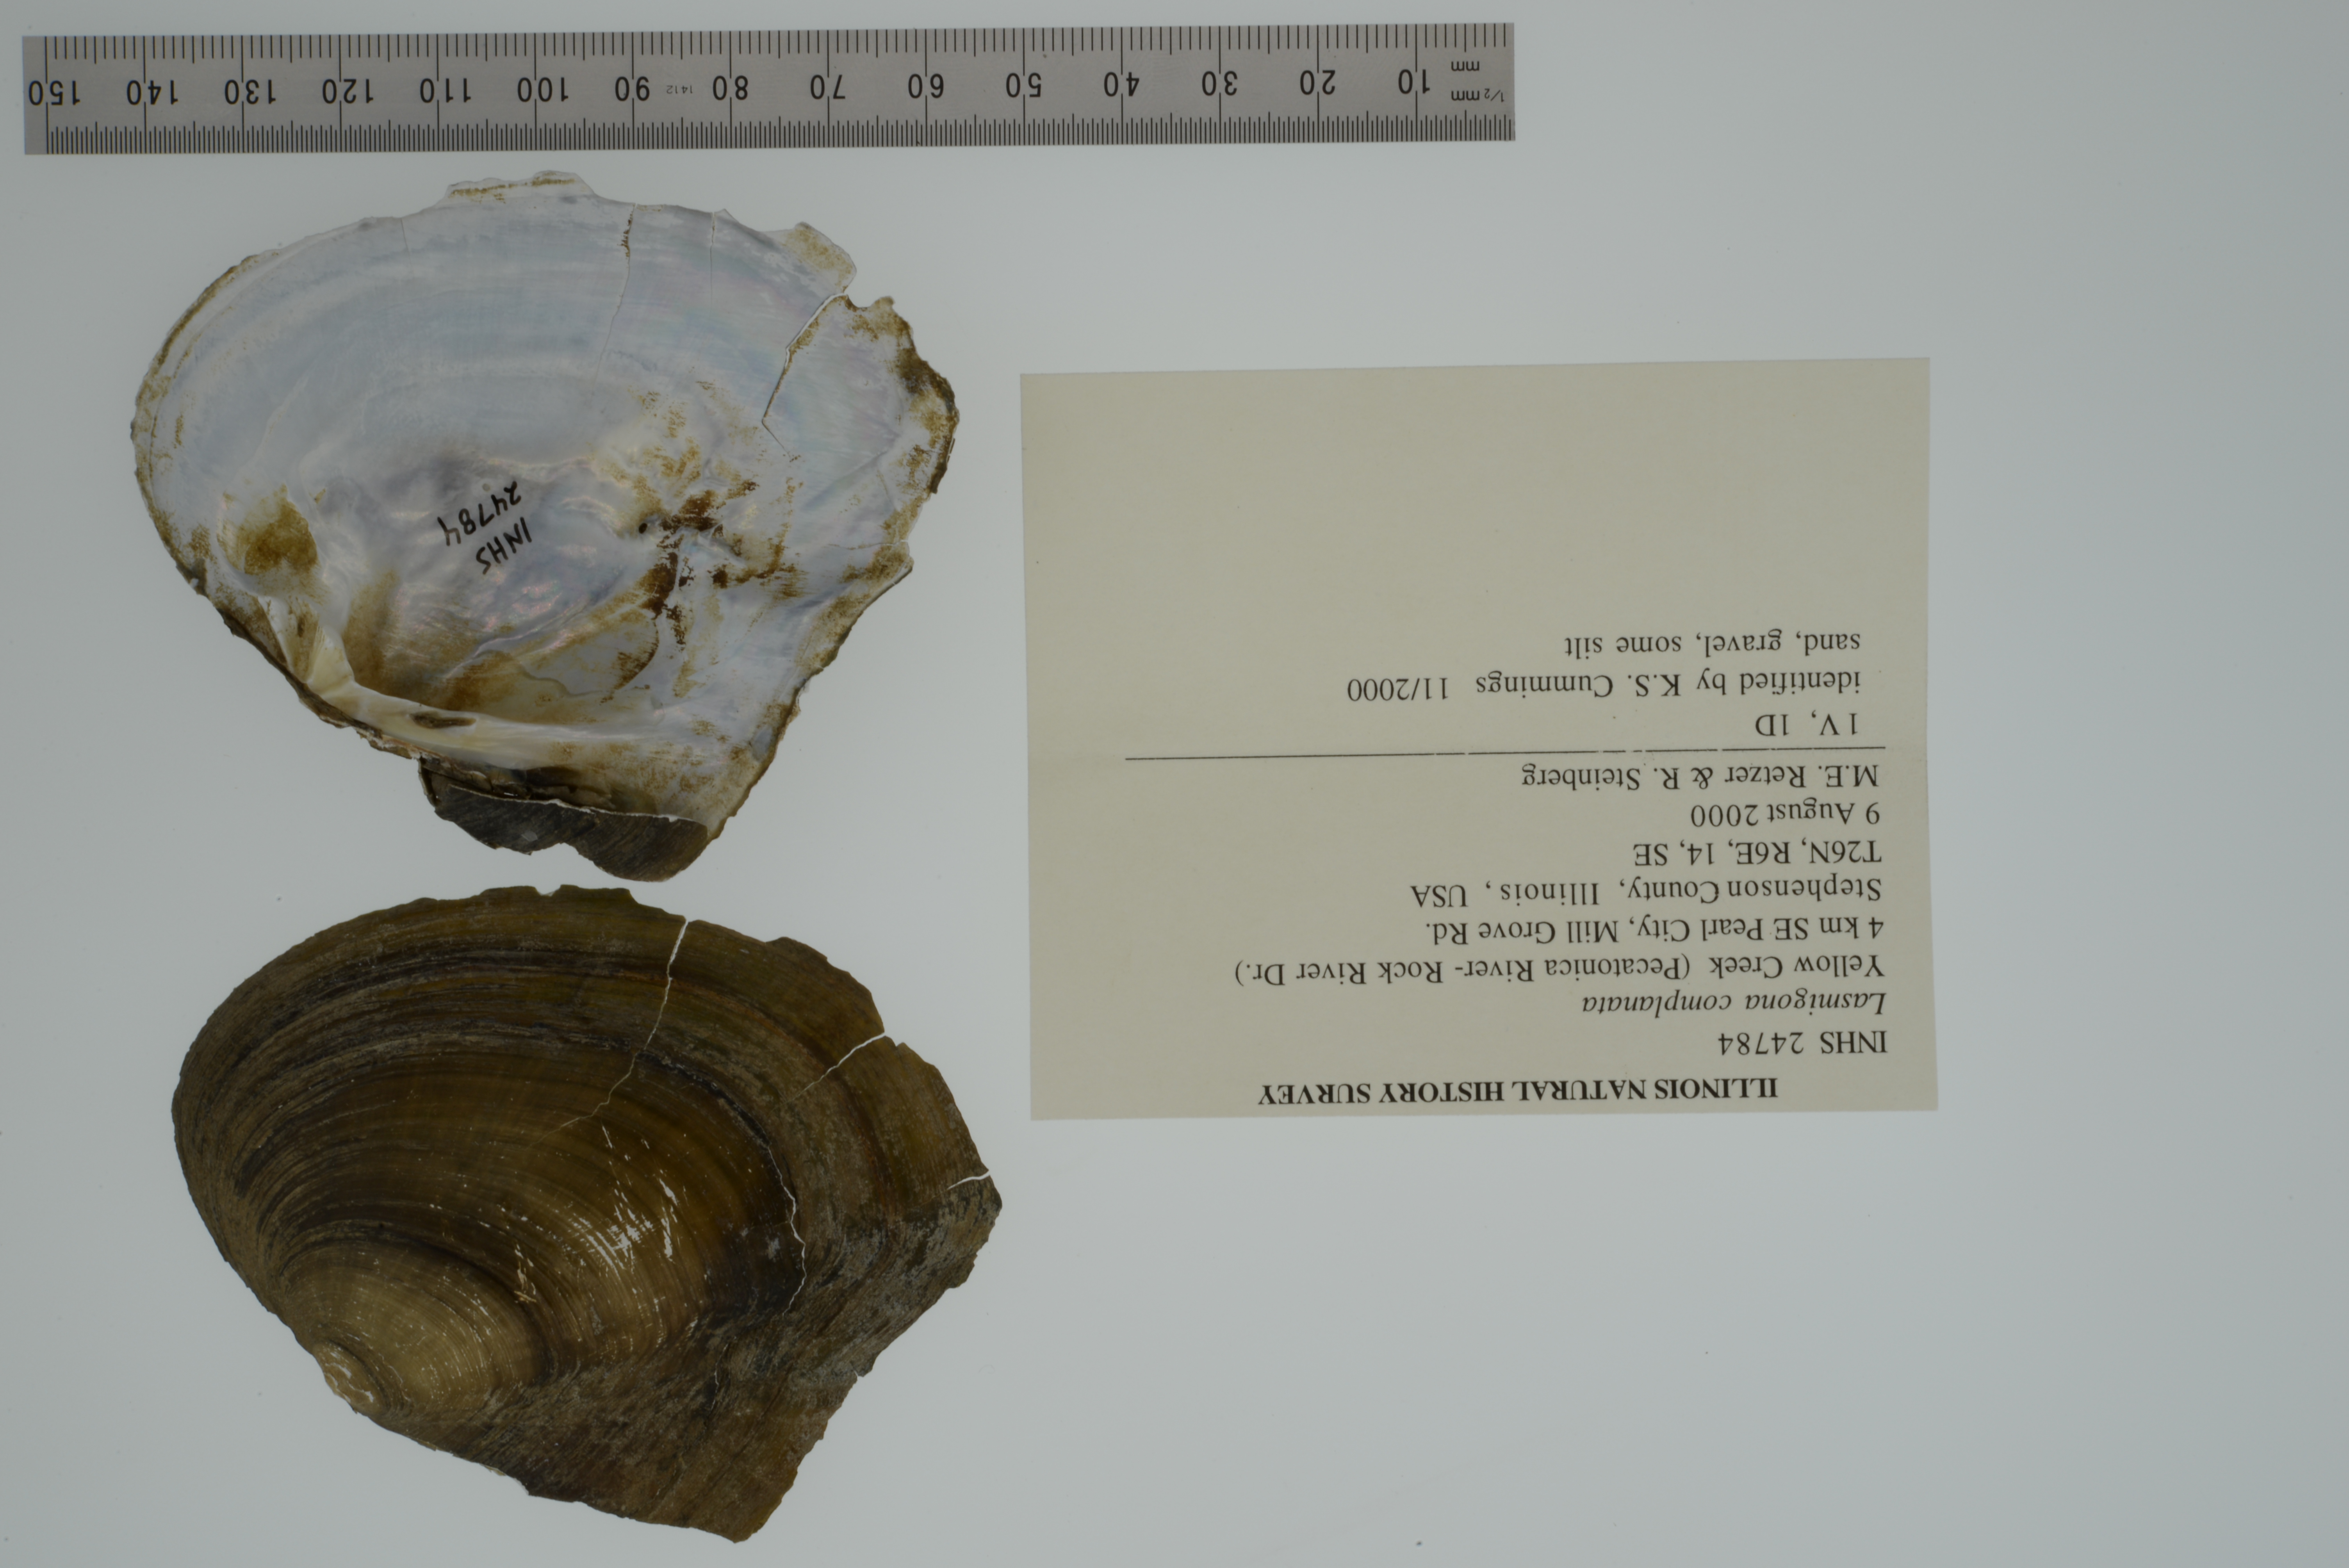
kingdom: Animalia
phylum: Mollusca
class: Bivalvia
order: Unionida
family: Unionidae
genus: Lasmigona
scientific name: Lasmigona complanata
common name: White heelsplitter
